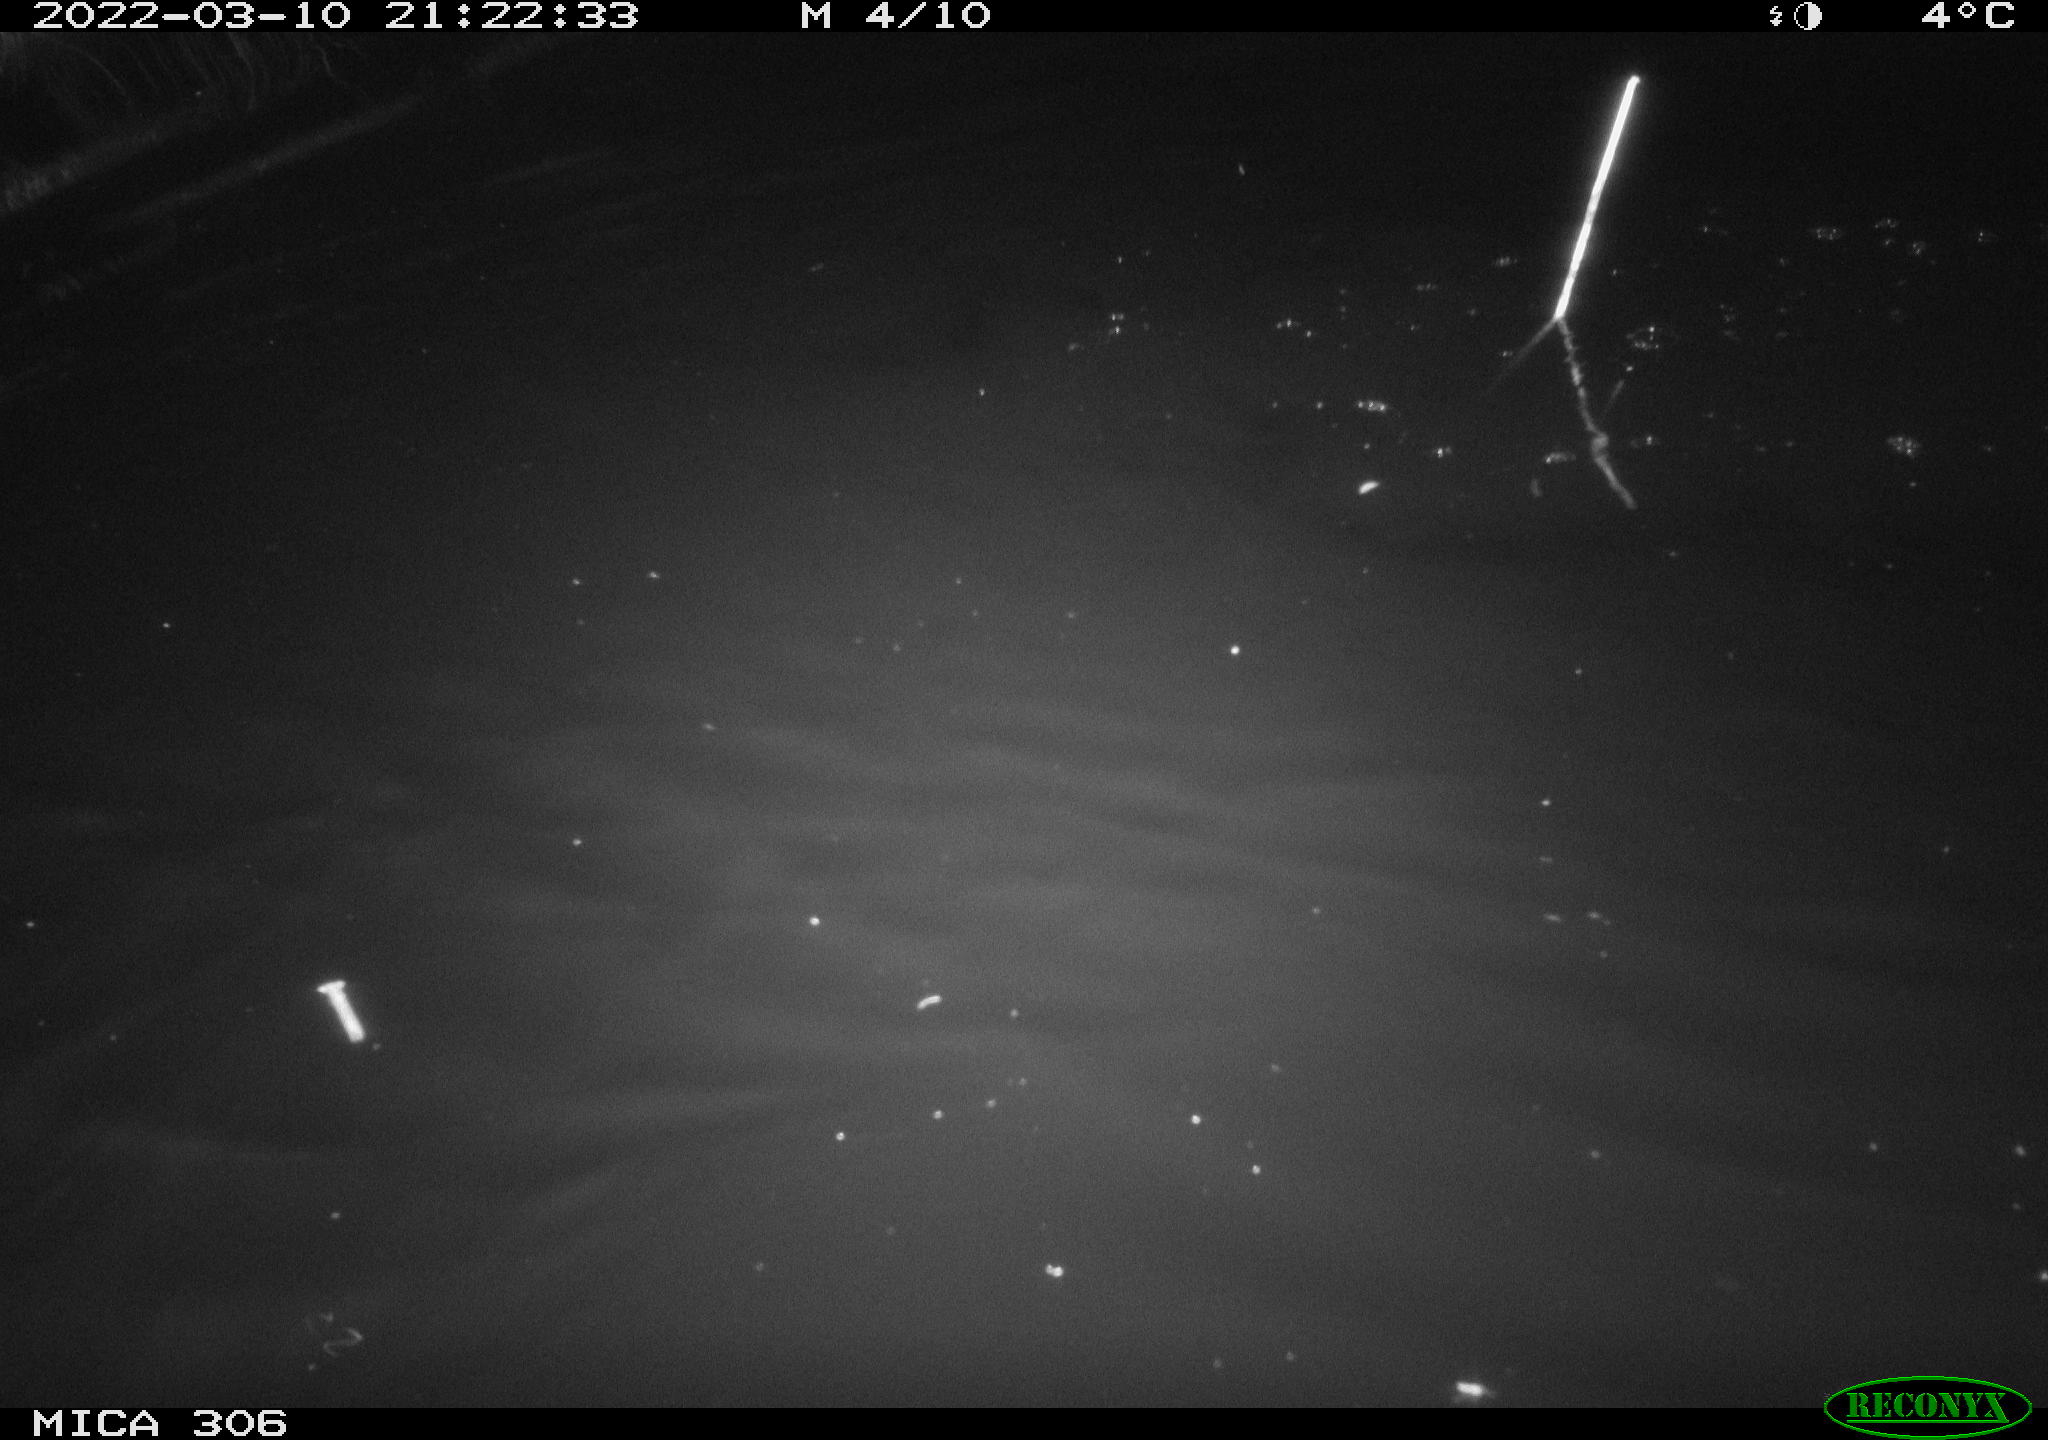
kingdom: Animalia
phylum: Chordata
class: Mammalia
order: Rodentia
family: Muridae
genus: Rattus
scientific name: Rattus norvegicus
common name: Brown rat
